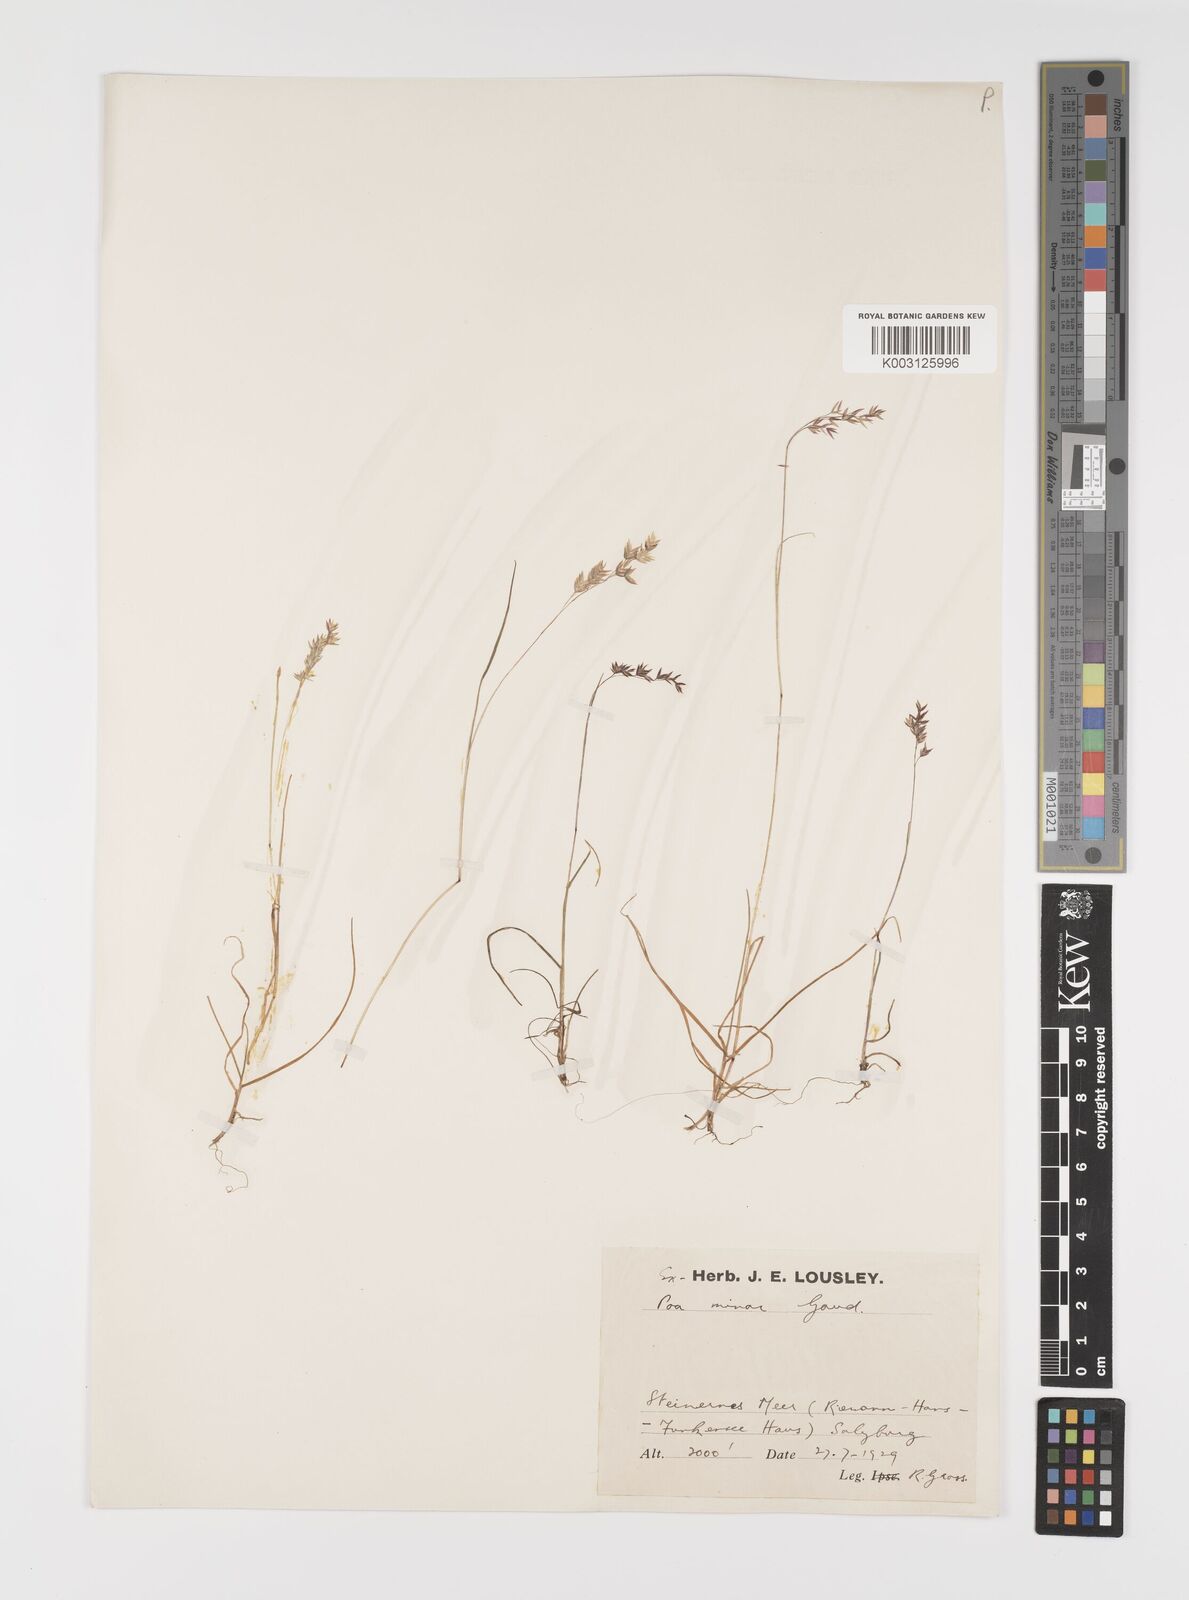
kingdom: Plantae
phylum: Tracheophyta
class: Liliopsida
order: Poales
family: Poaceae
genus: Poa
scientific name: Poa minor
